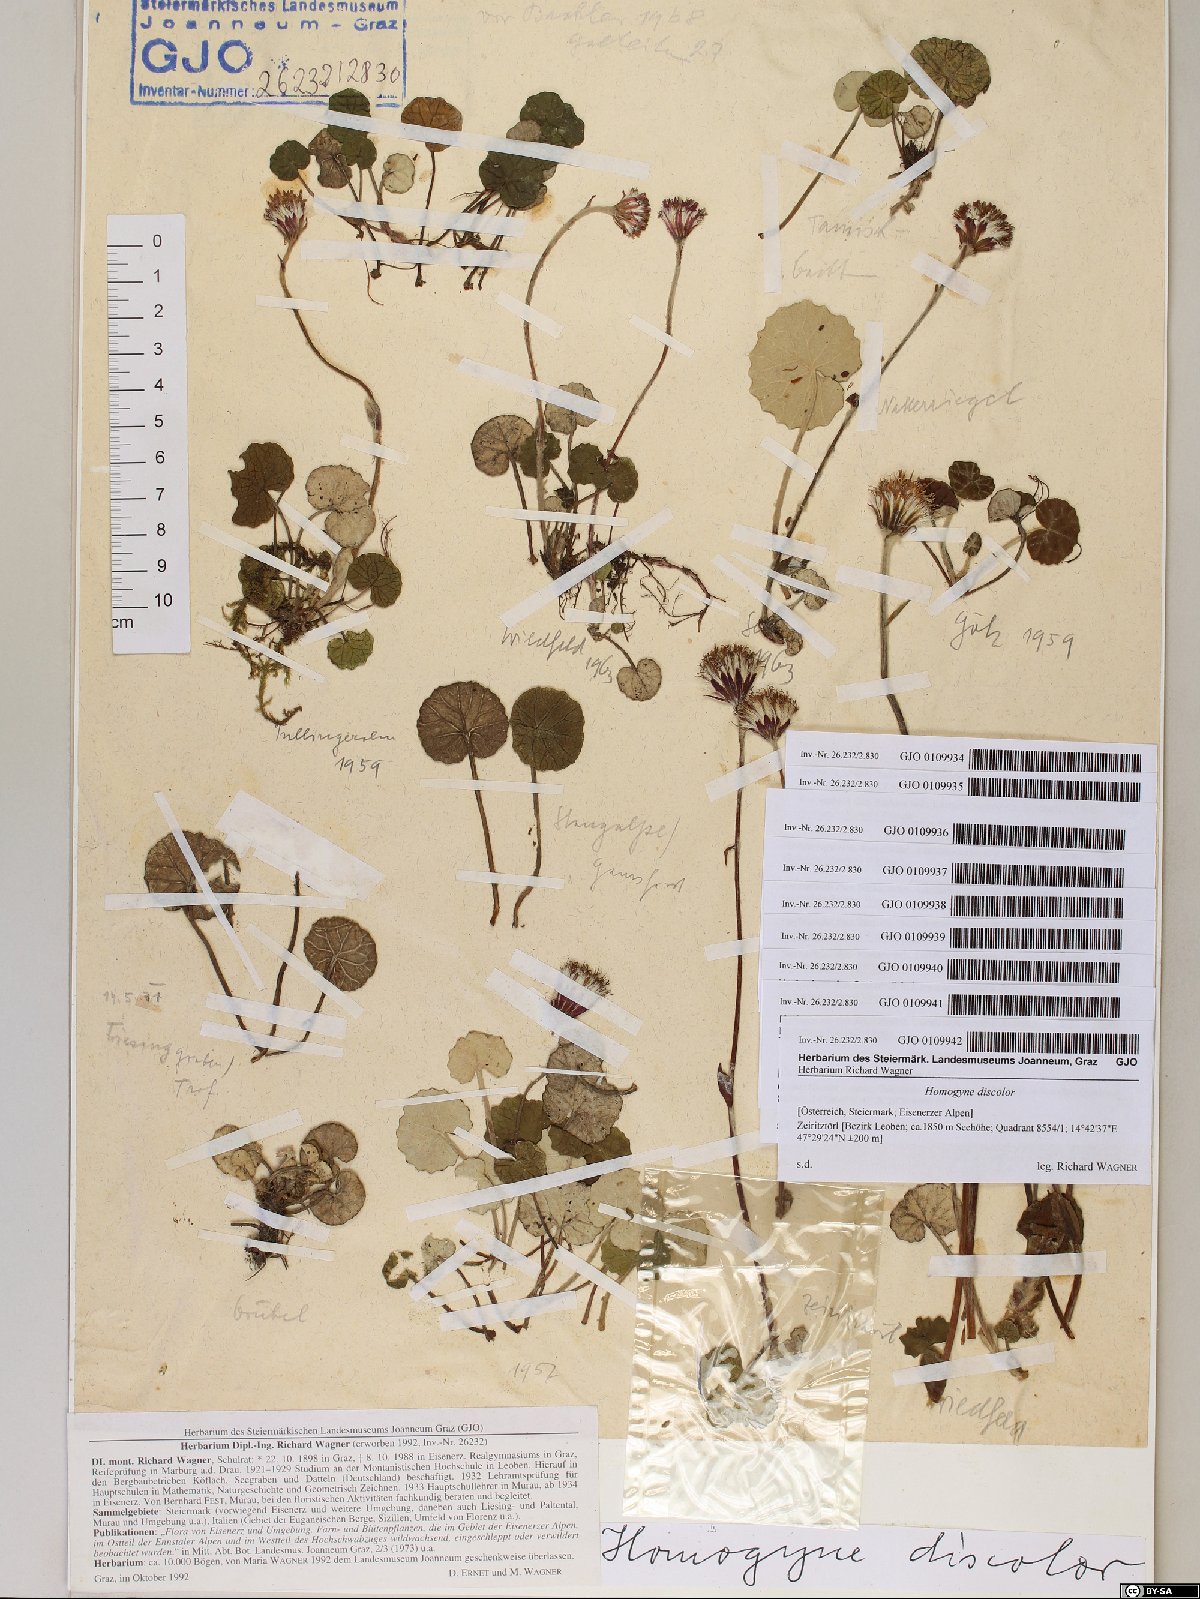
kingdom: Plantae
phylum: Tracheophyta
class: Magnoliopsida
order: Asterales
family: Asteraceae
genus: Homogyne
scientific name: Homogyne discolor
